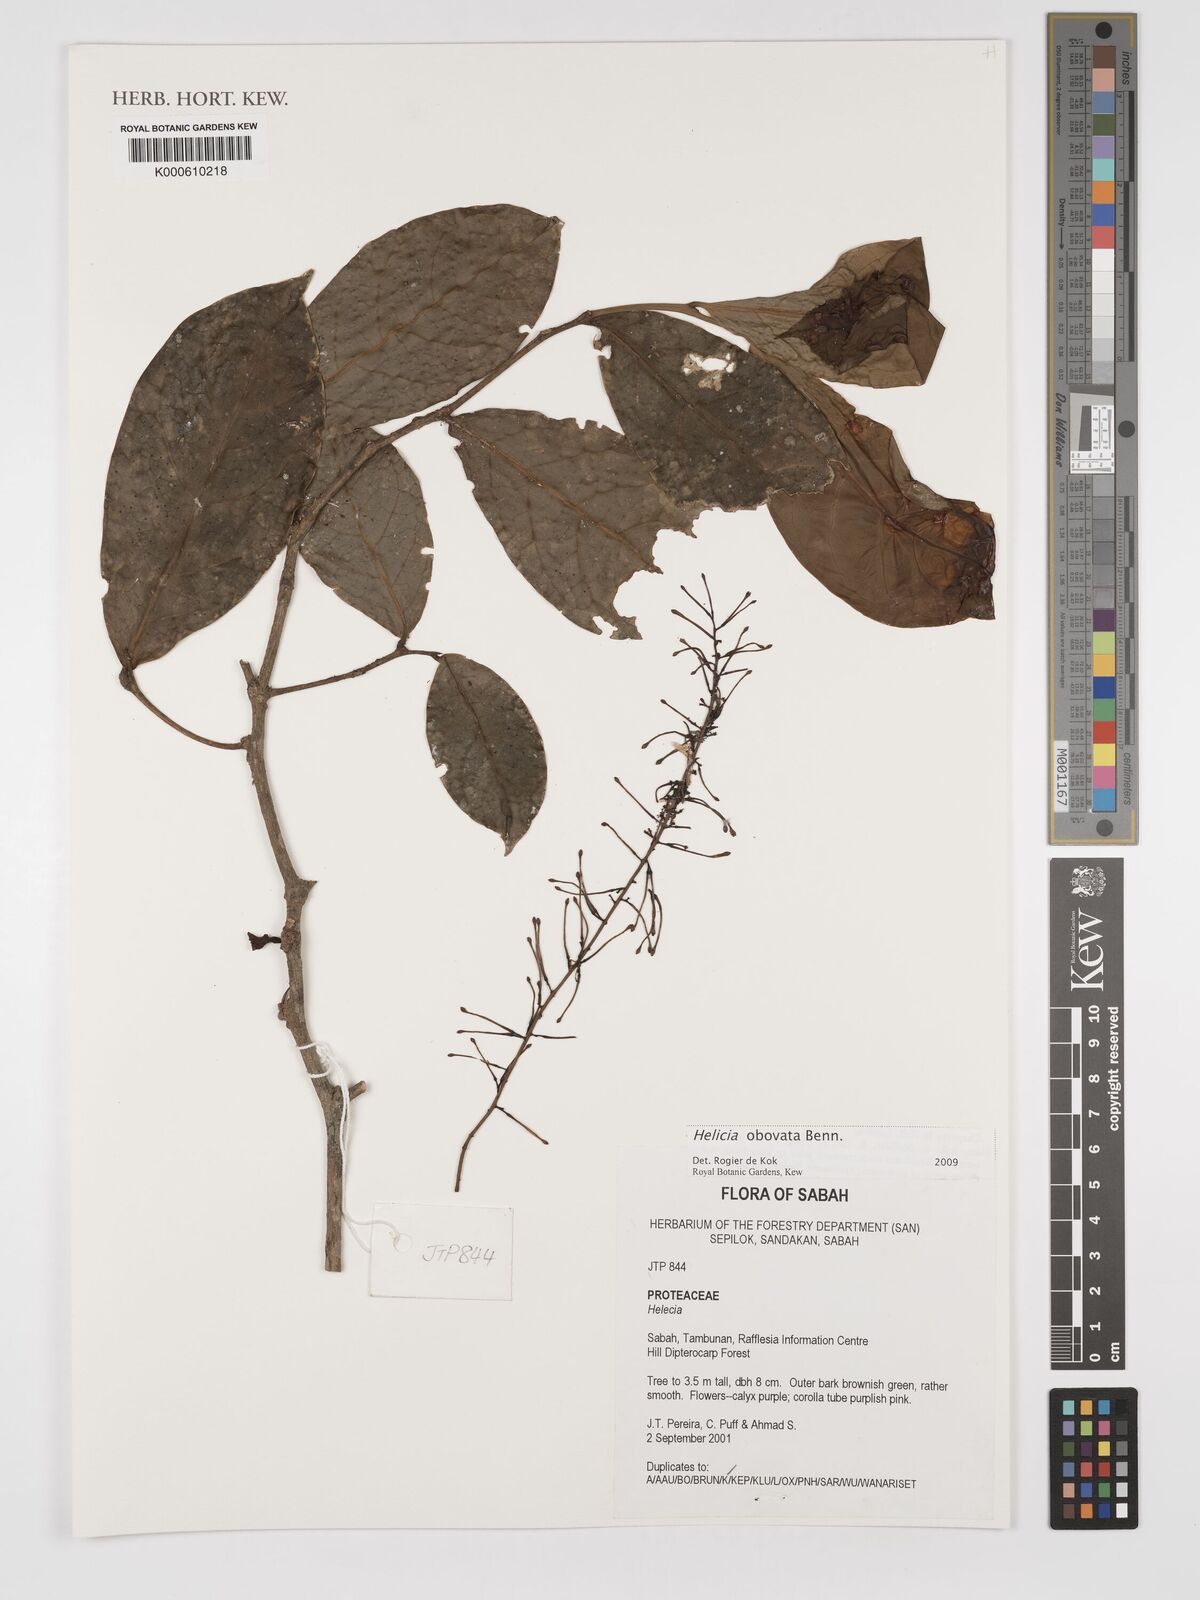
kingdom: Plantae
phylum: Tracheophyta
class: Magnoliopsida
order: Proteales
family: Proteaceae
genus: Helicia
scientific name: Helicia attenuata
